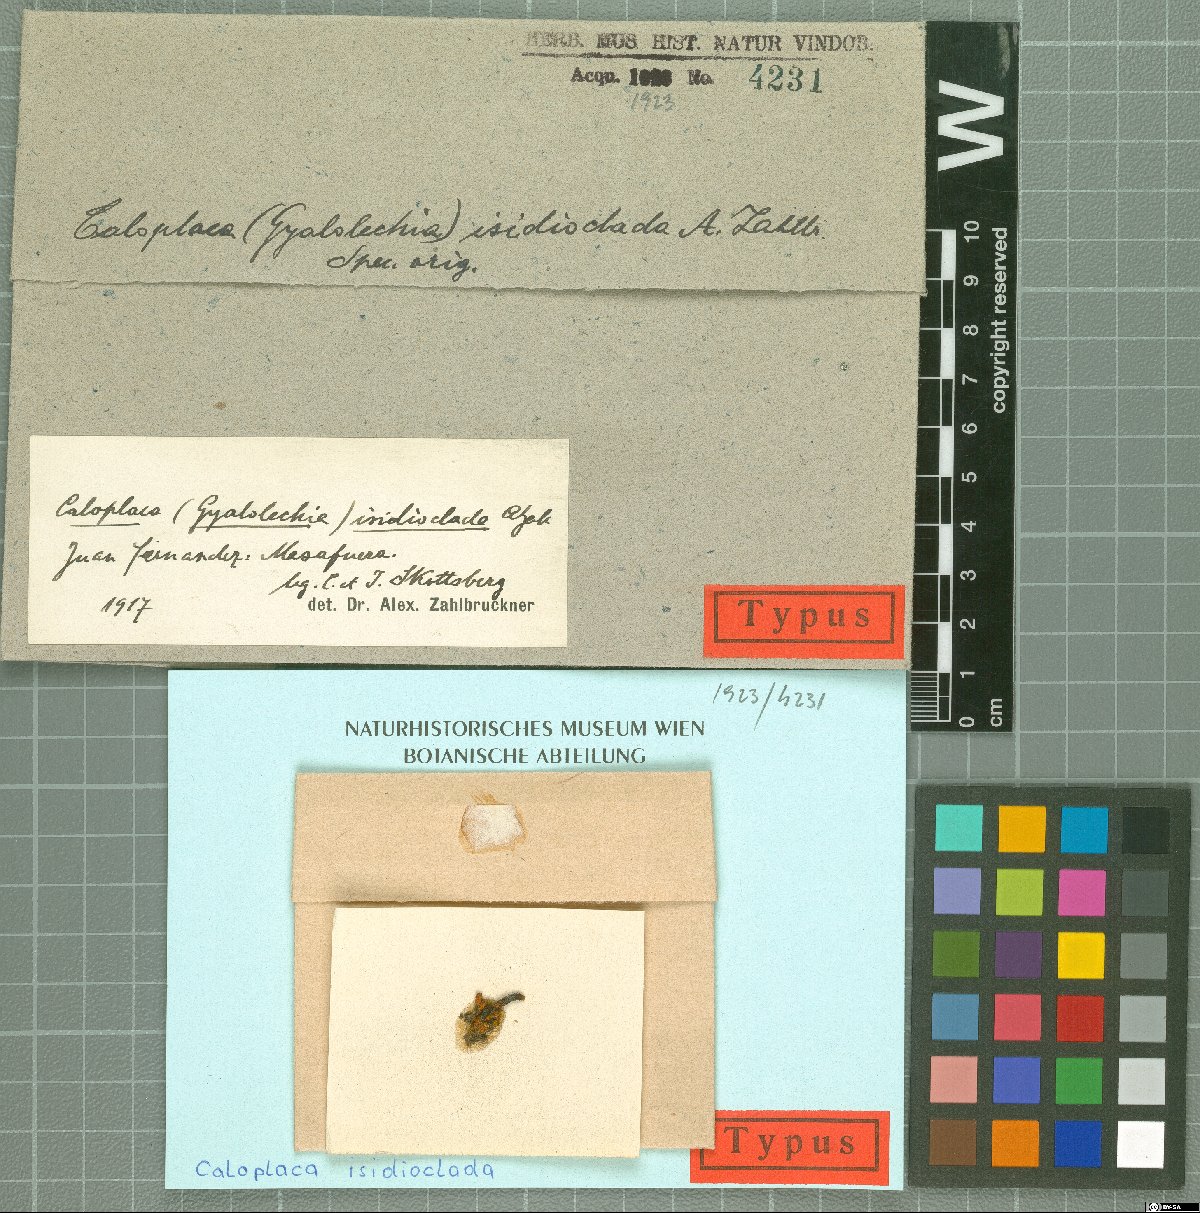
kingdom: Fungi
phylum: Ascomycota
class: Lecanoromycetes
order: Teloschistales
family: Teloschistaceae
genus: Villophora
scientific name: Villophora isidioclada
